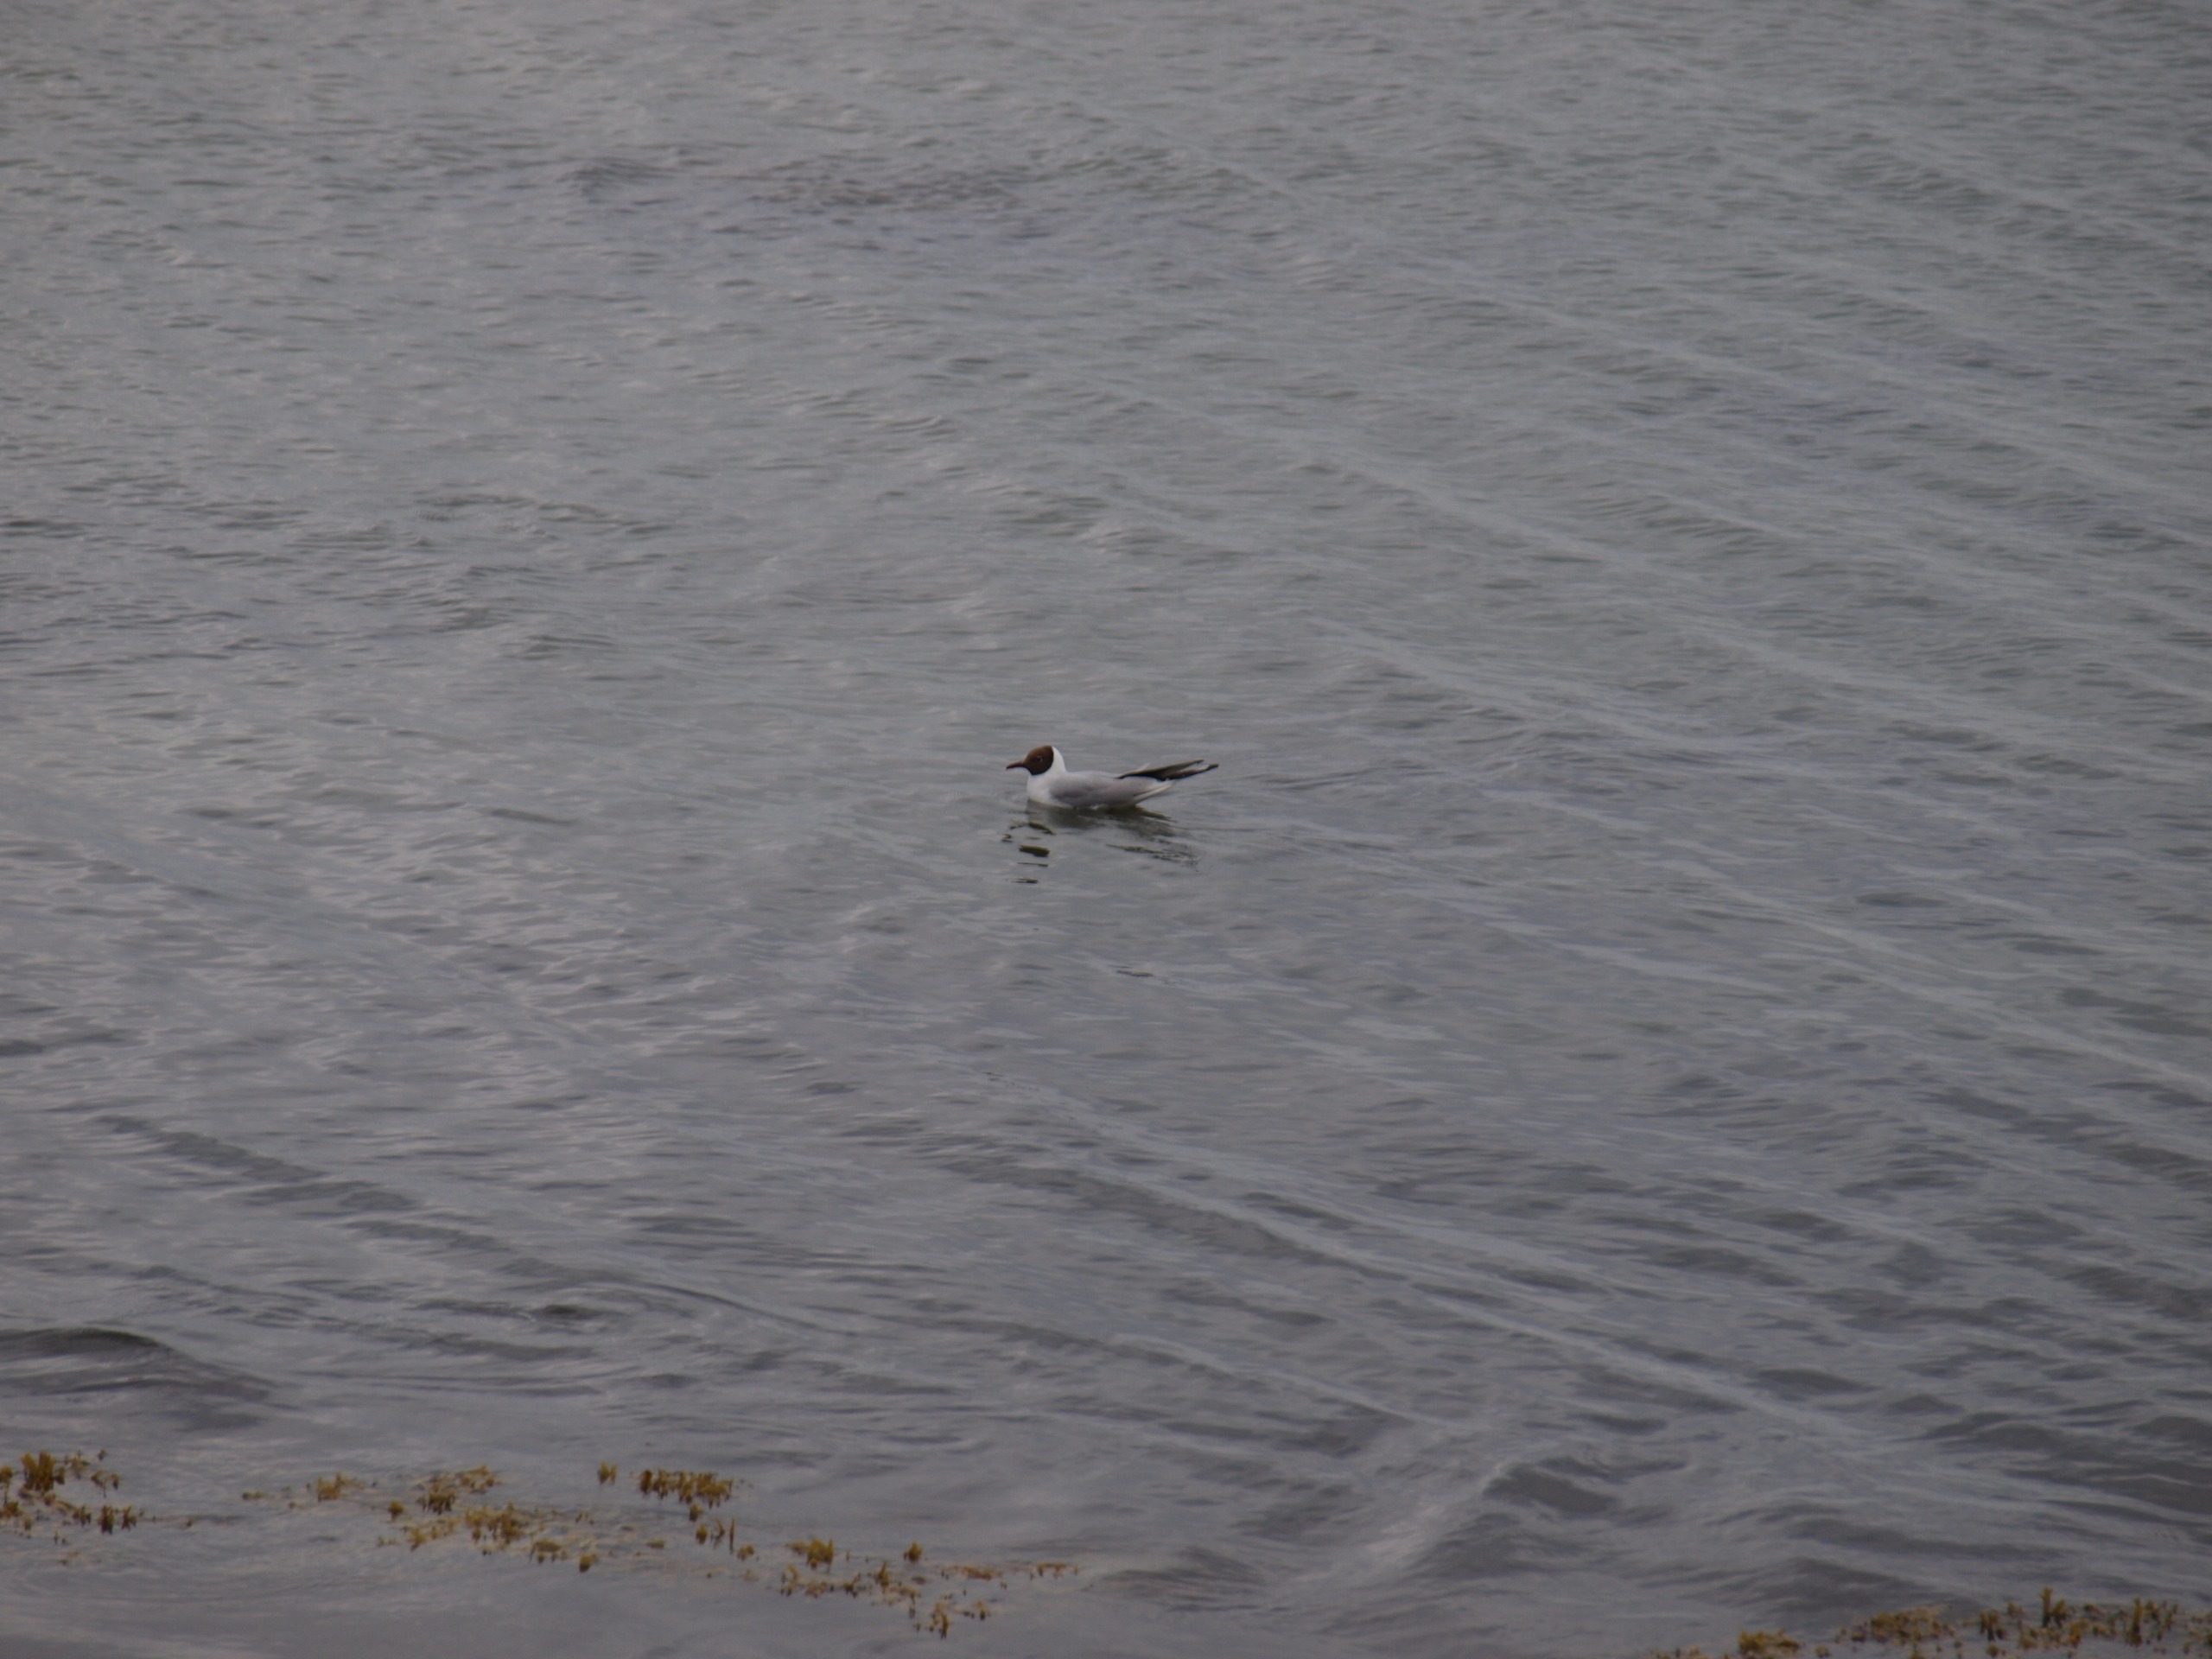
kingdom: Animalia
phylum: Chordata
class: Aves
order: Charadriiformes
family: Laridae
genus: Chroicocephalus
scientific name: Chroicocephalus ridibundus
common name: Hættemåge
